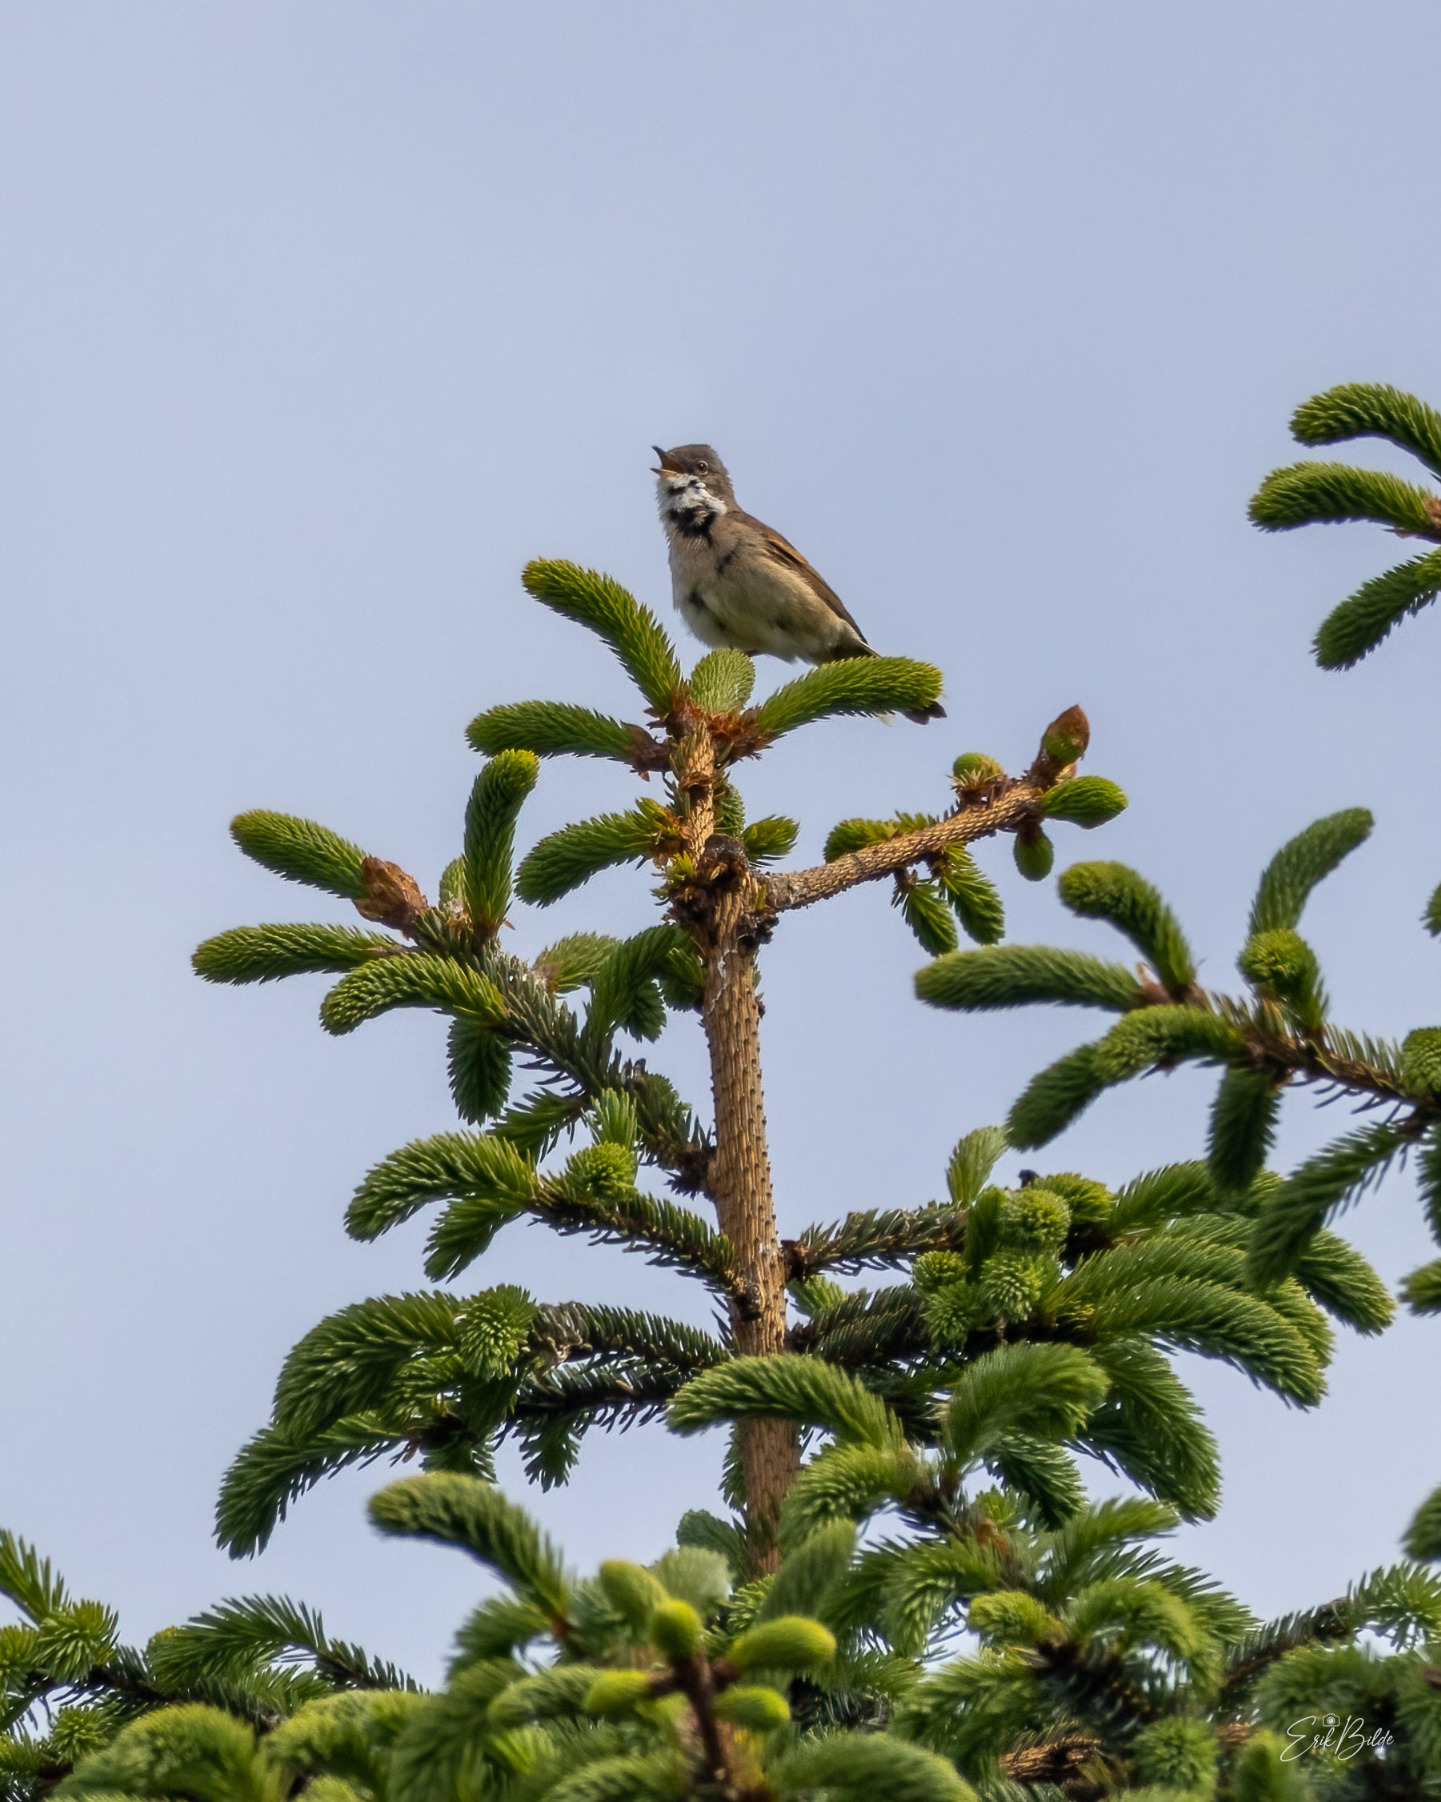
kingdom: Animalia
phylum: Chordata
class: Aves
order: Passeriformes
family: Sylviidae
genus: Sylvia
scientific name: Sylvia communis
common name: Tornsanger
